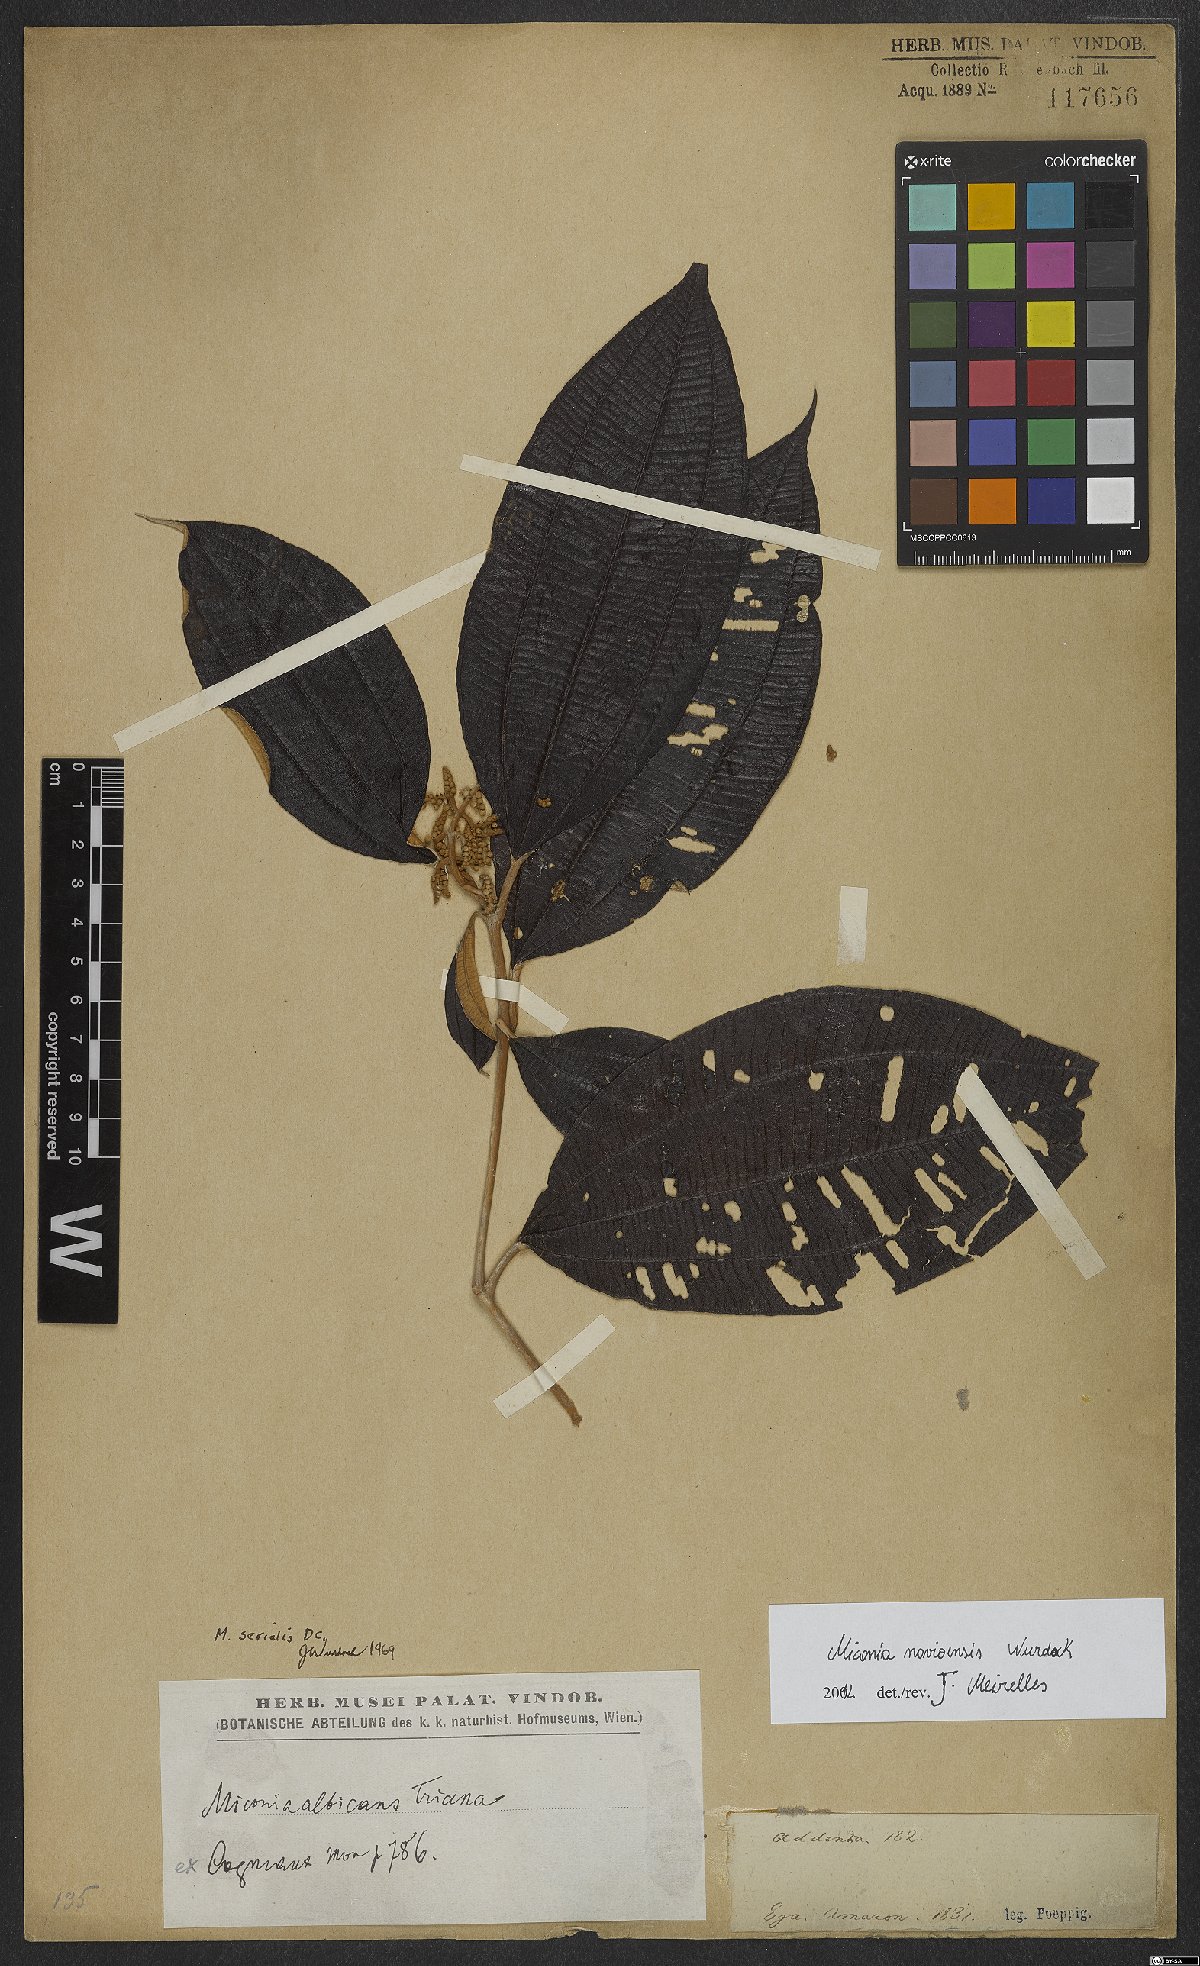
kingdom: Plantae
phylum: Tracheophyta
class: Magnoliopsida
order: Myrtales
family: Melastomataceae
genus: Miconia
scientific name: Miconia navioensis
